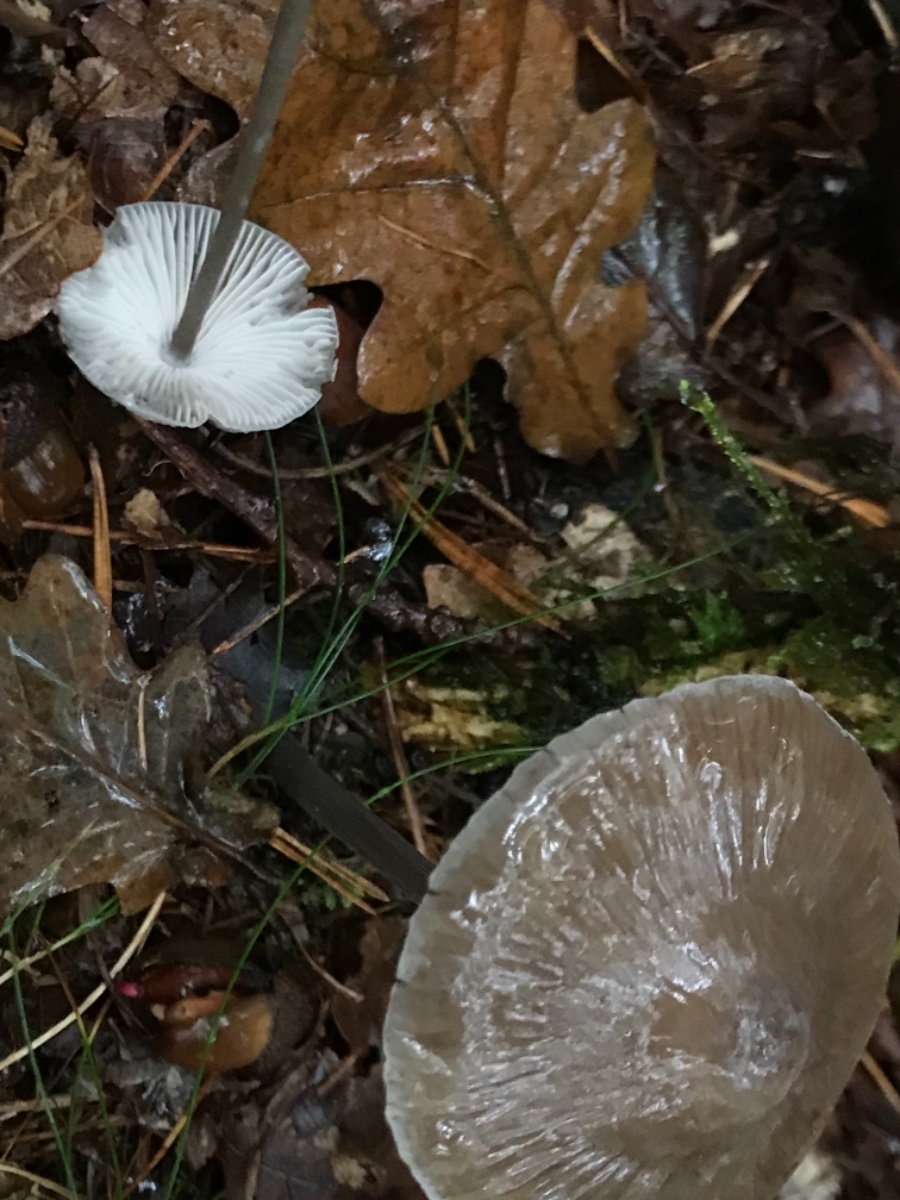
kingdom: Fungi
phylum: Basidiomycota
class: Agaricomycetes
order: Agaricales
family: Mycenaceae
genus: Mycena
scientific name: Mycena polygramma
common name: mangestribet huesvamp
